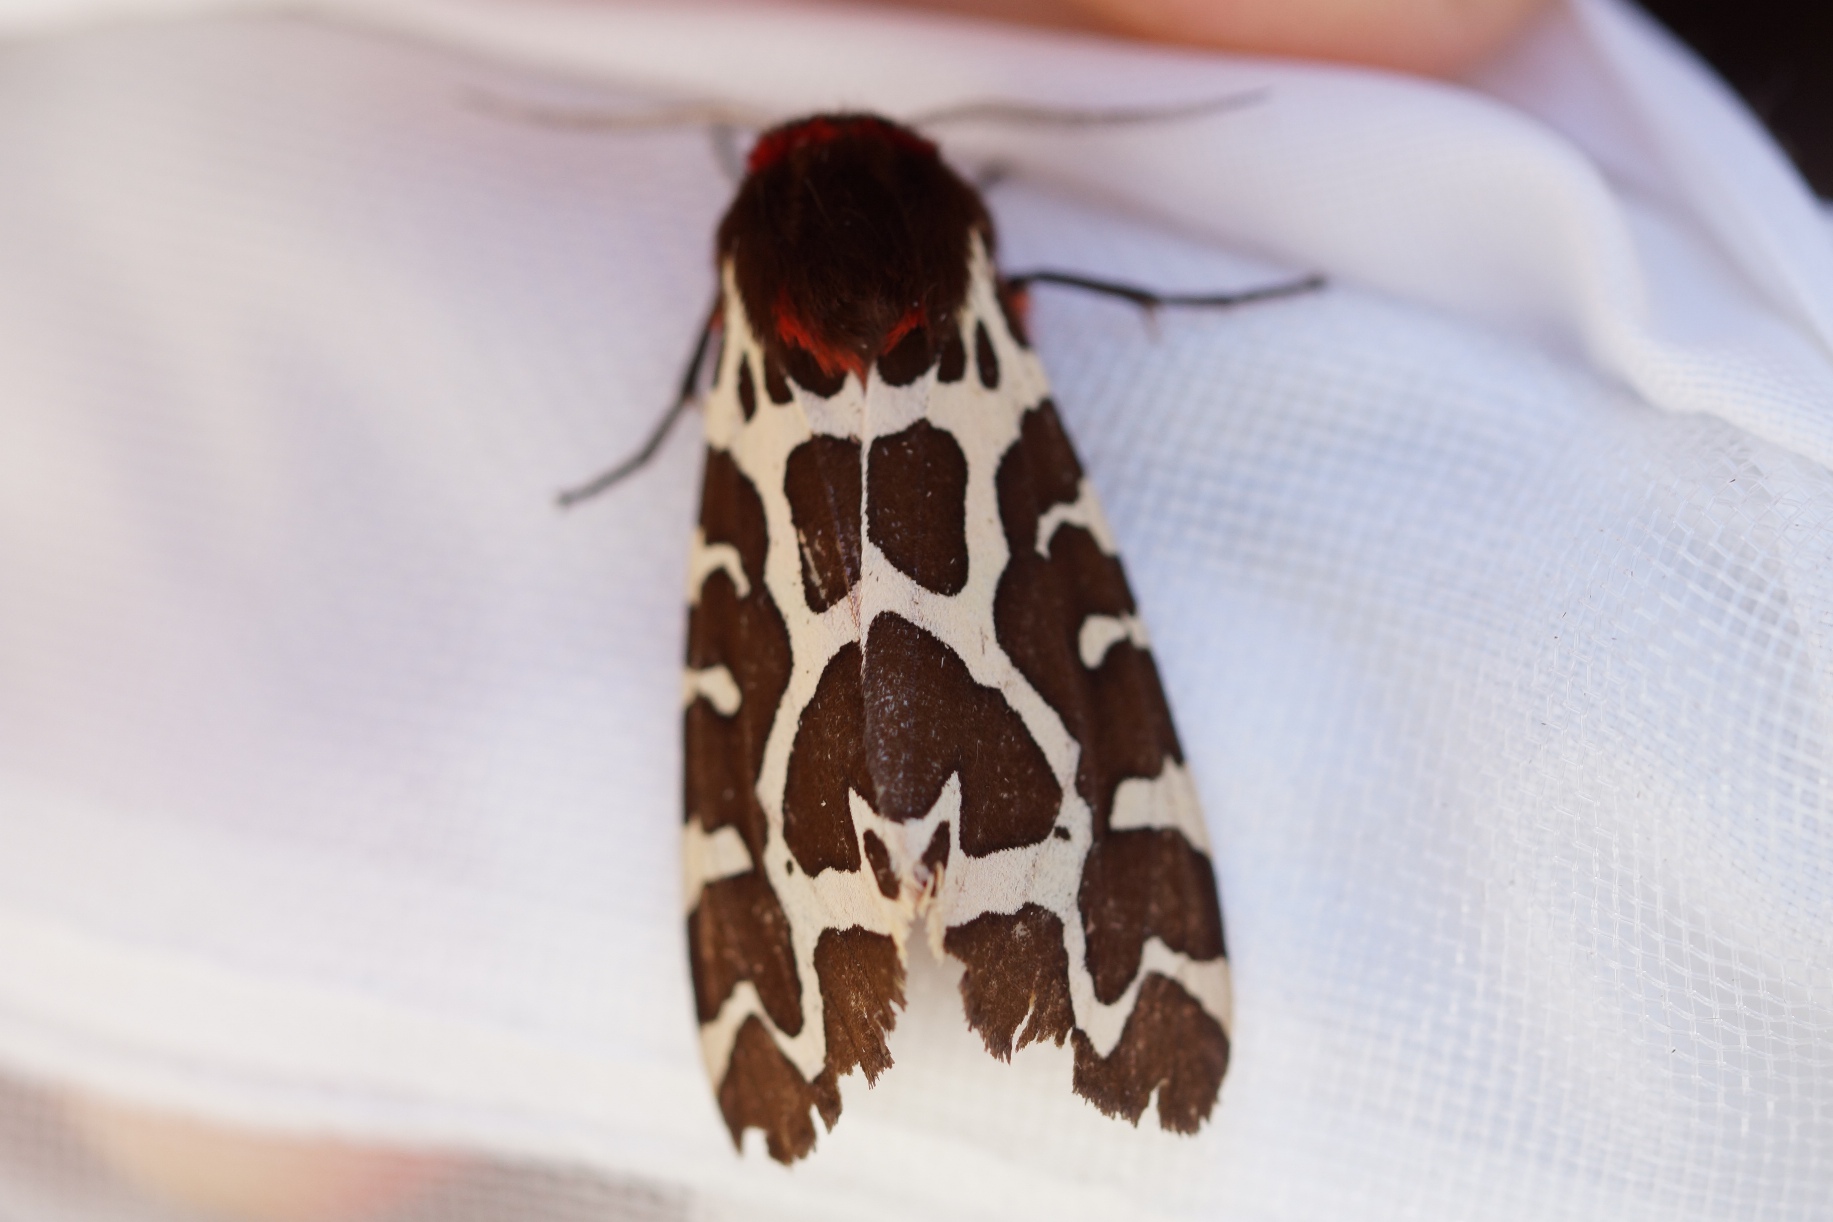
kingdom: Animalia
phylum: Arthropoda
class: Insecta
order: Lepidoptera
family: Erebidae
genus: Arctia
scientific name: Arctia caja
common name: Brun bjørn
